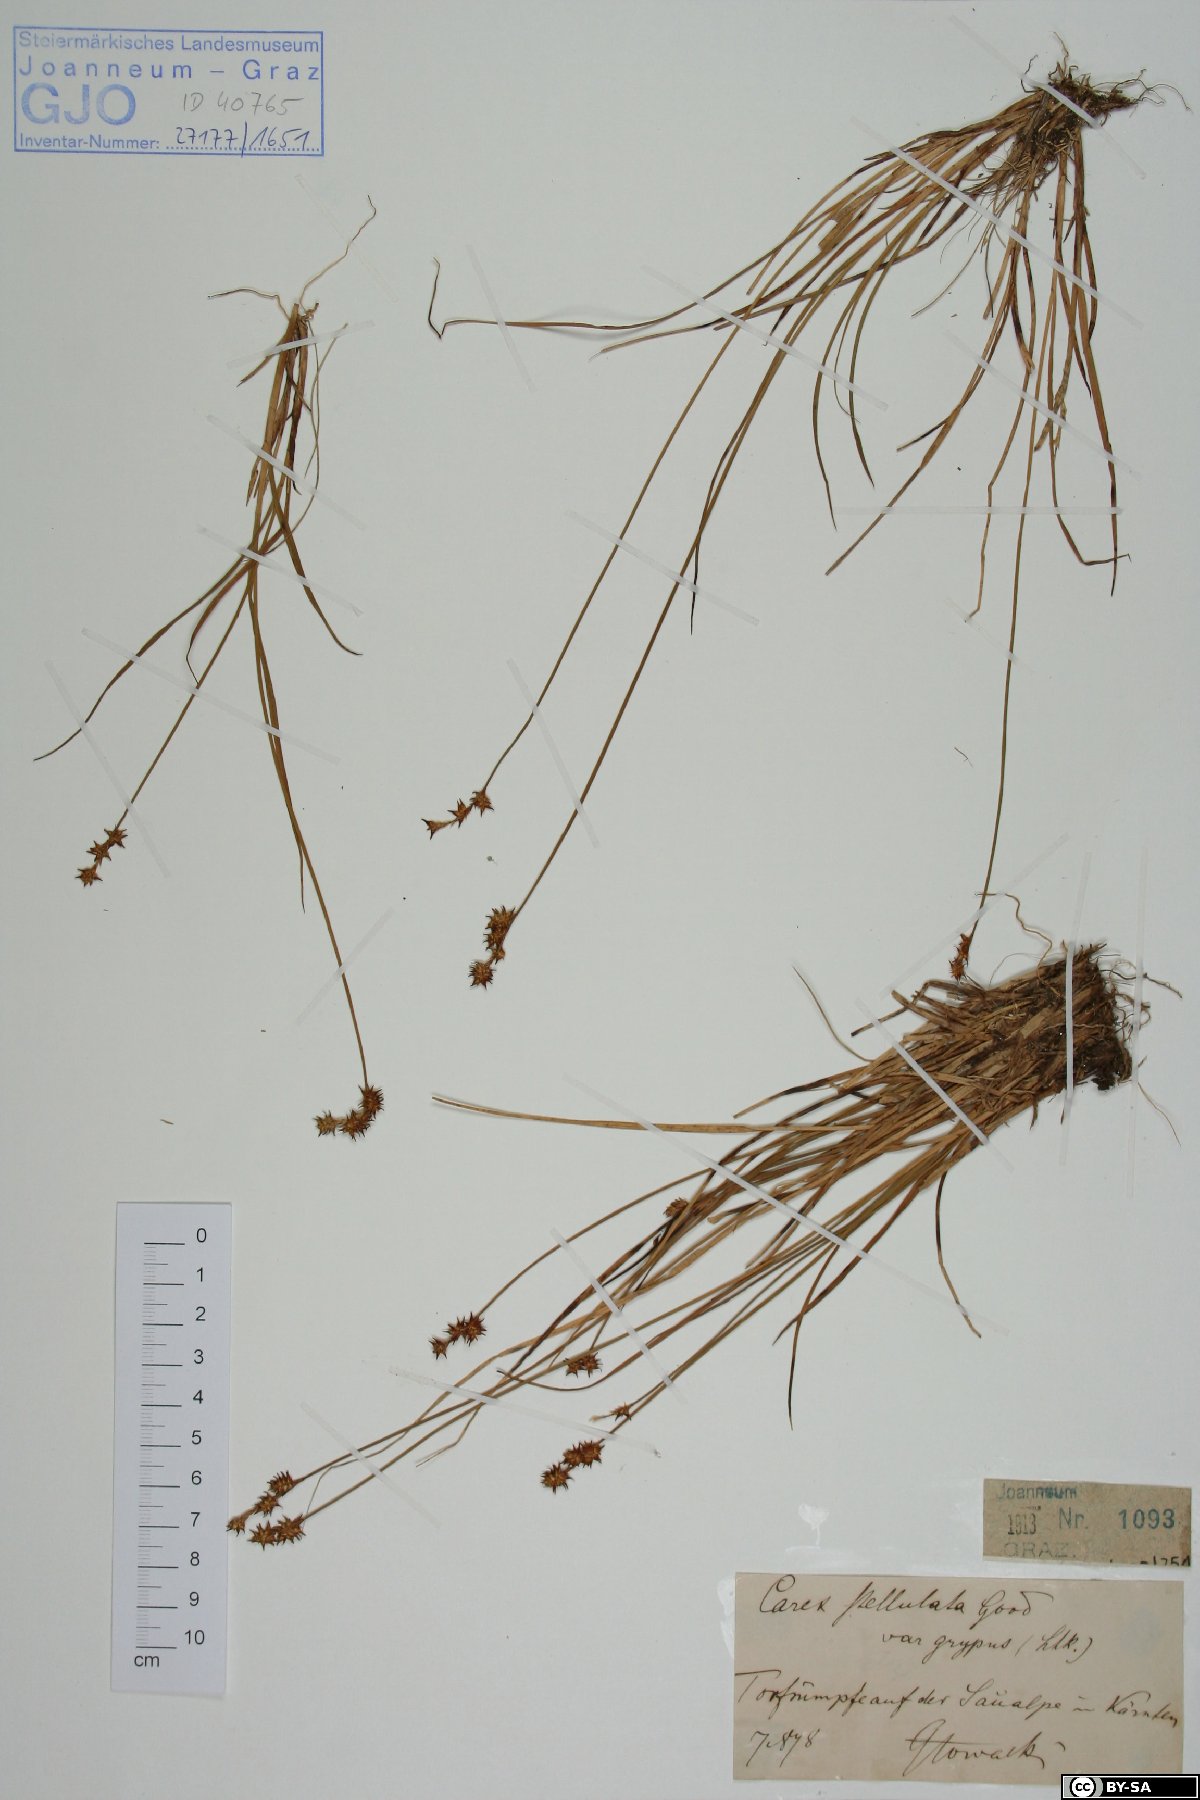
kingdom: Plantae
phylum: Tracheophyta
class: Liliopsida
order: Poales
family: Cyperaceae
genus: Carex
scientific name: Carex echinata
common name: Star sedge
